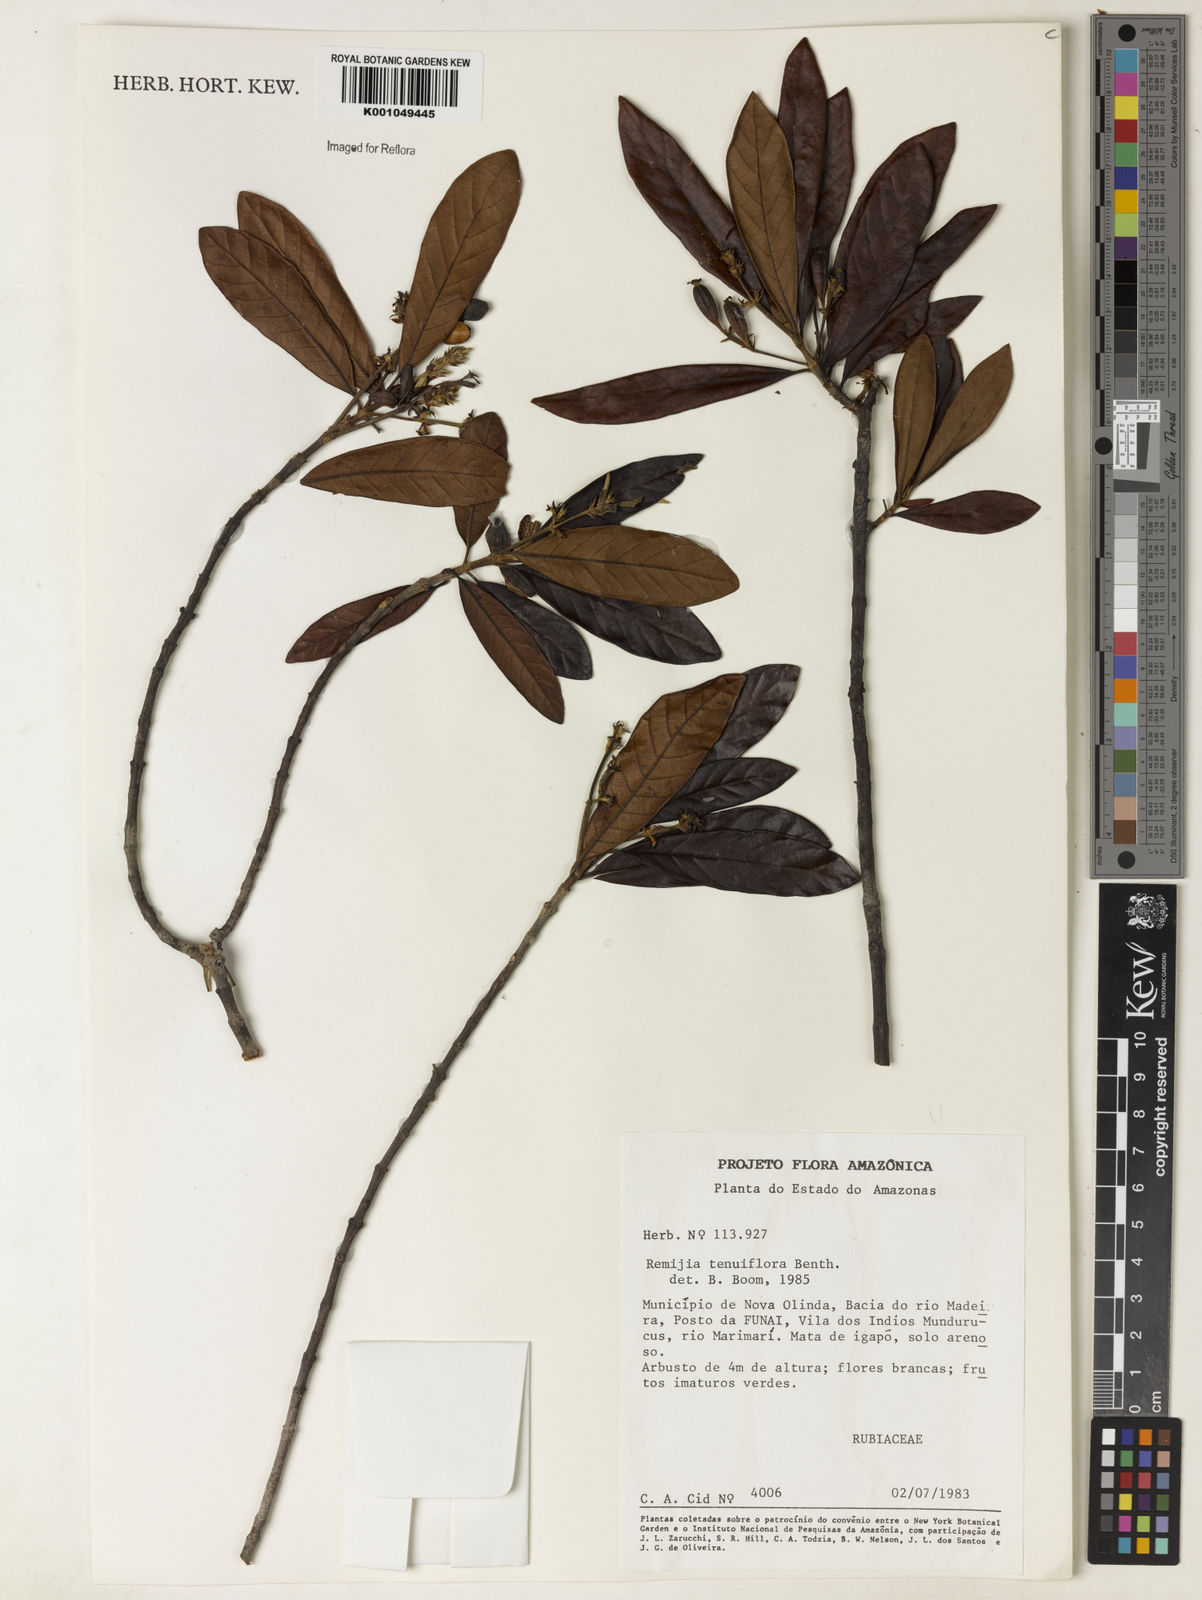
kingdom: Plantae
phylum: Tracheophyta
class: Magnoliopsida
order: Gentianales
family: Rubiaceae
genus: Remijia
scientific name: Remijia tenuiflora
